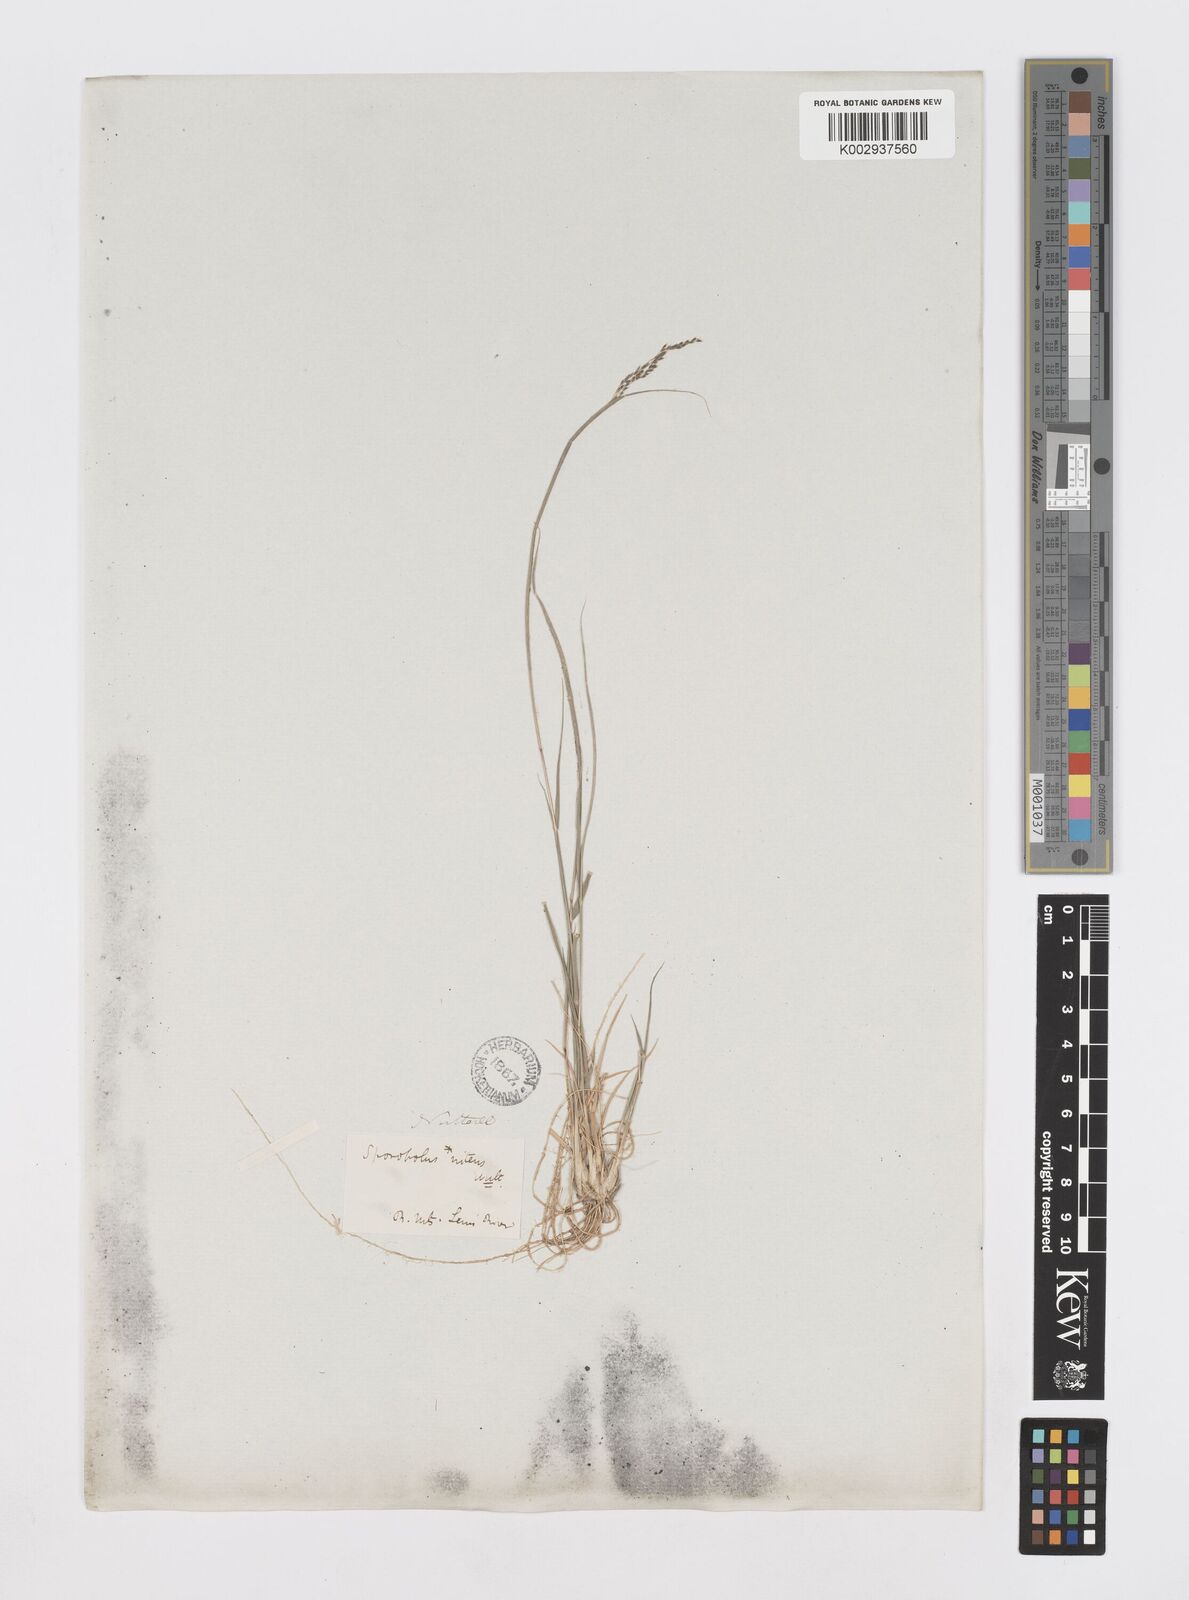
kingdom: Plantae
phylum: Tracheophyta
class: Liliopsida
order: Poales
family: Poaceae
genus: Sporobolus
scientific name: Sporobolus nitens
